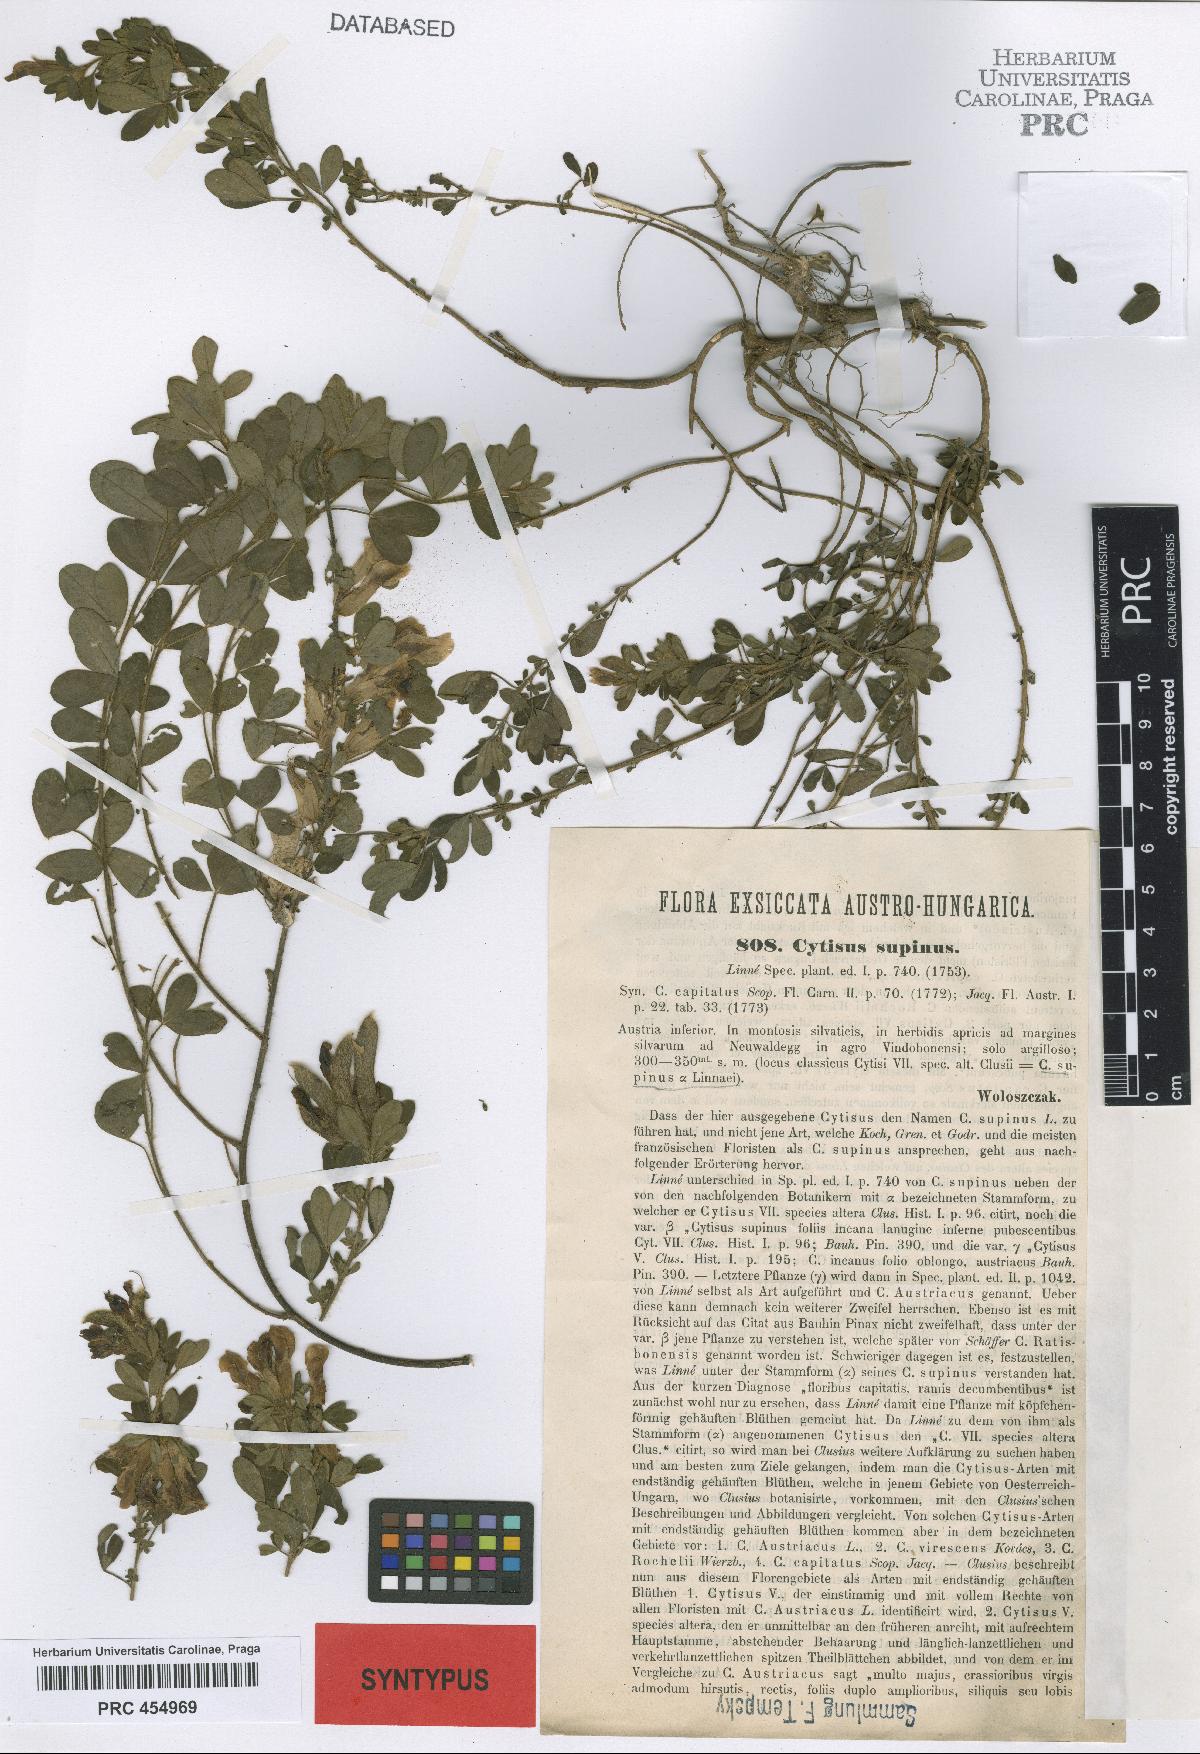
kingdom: Plantae
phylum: Tracheophyta
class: Magnoliopsida
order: Fabales
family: Fabaceae
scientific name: Fabaceae
